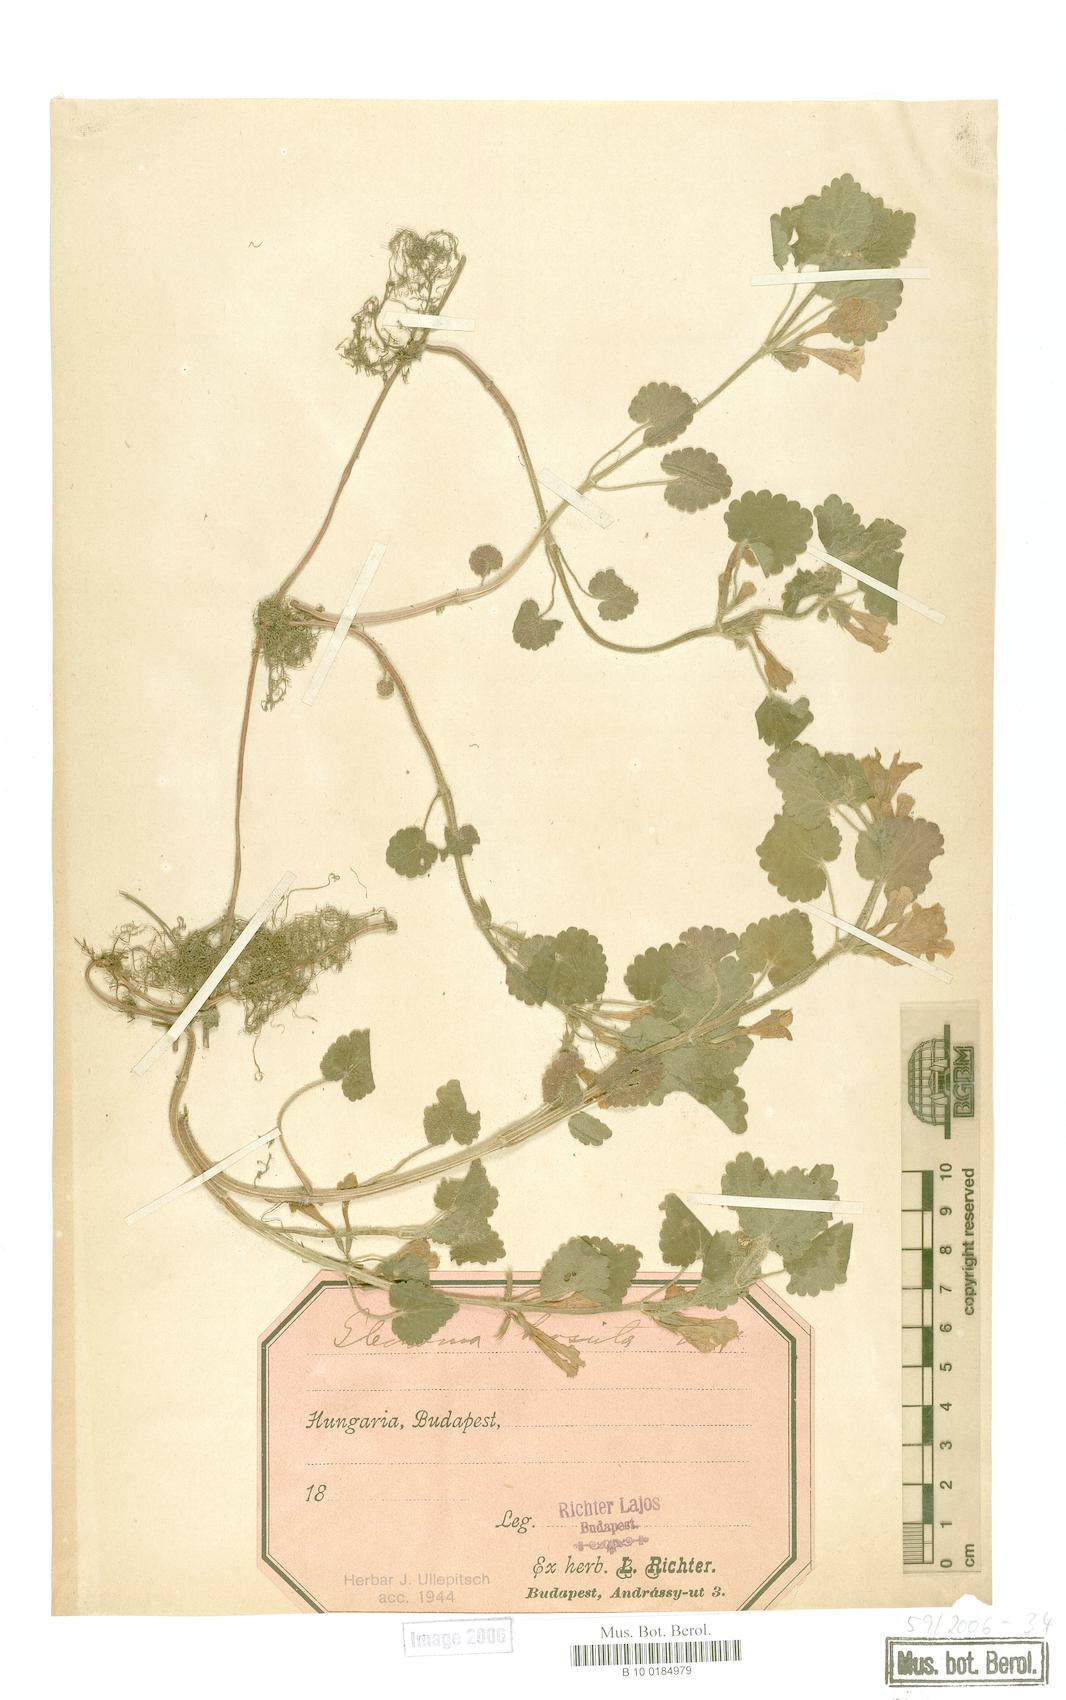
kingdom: Plantae
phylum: Tracheophyta
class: Magnoliopsida
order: Lamiales
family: Lamiaceae
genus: Glechoma
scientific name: Glechoma hirsuta
